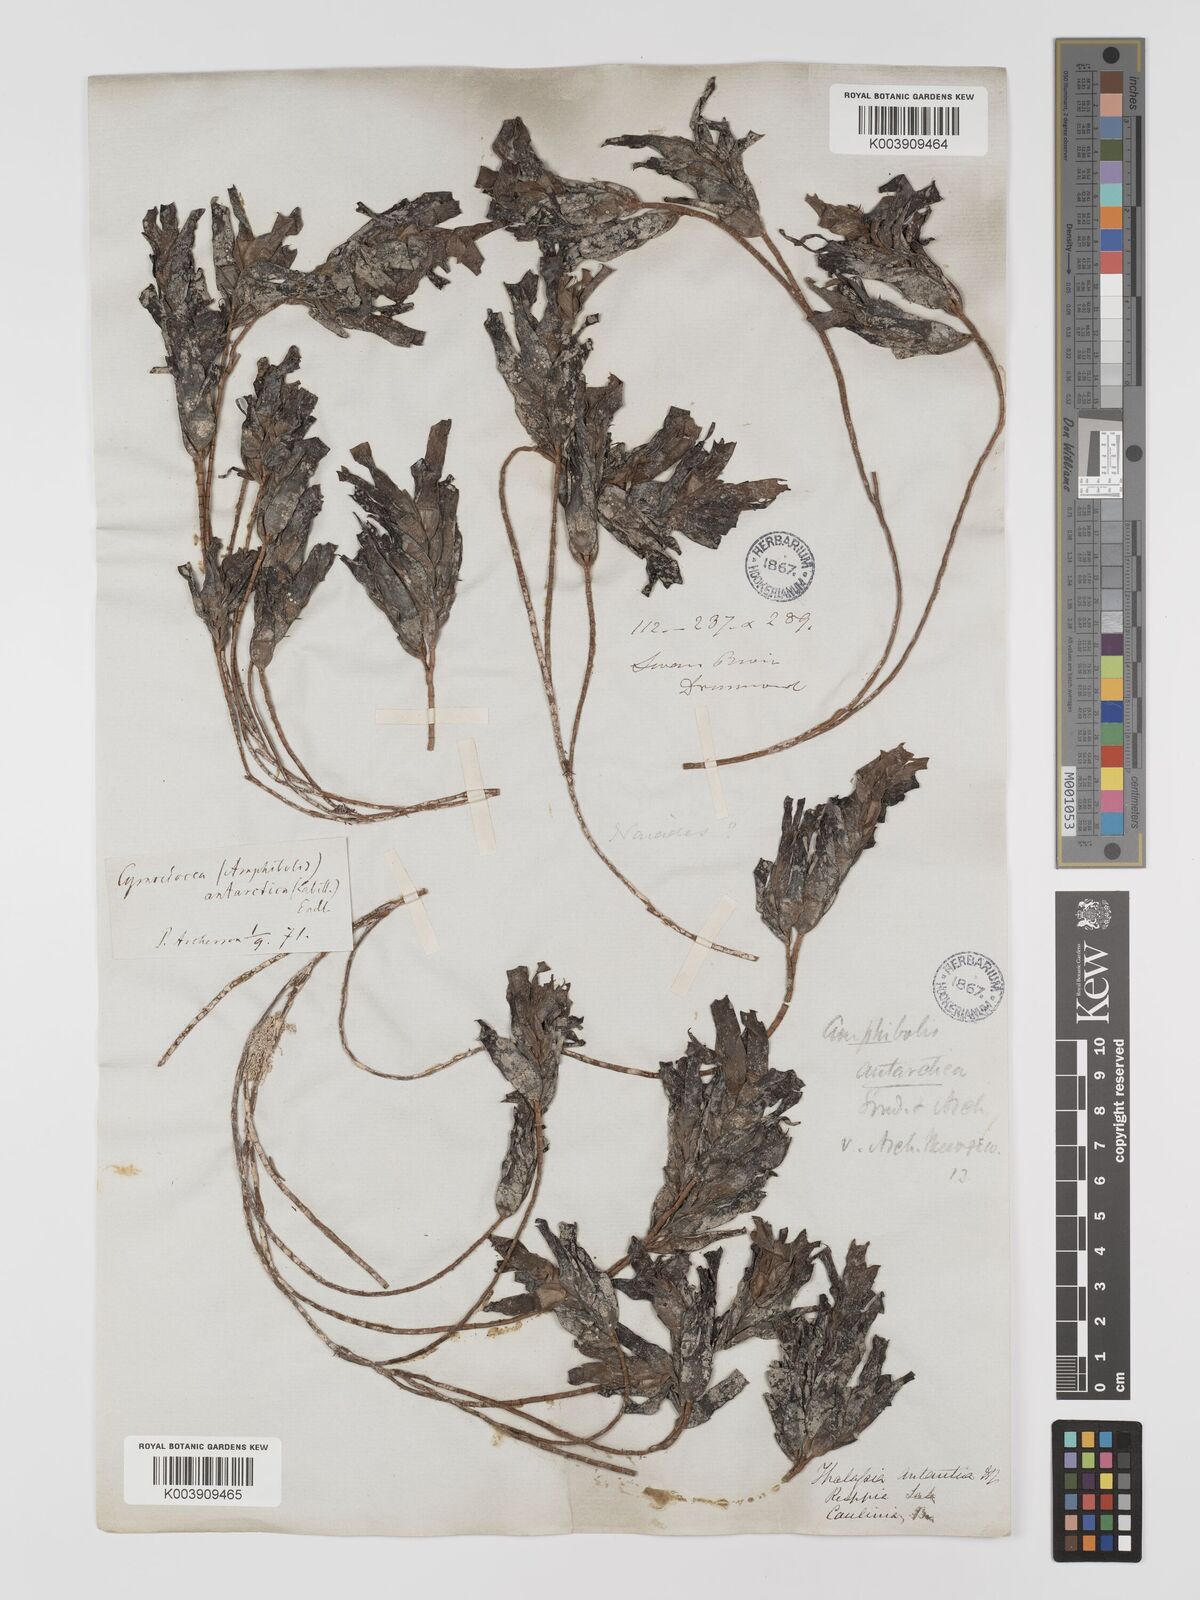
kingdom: Plantae
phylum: Tracheophyta
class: Liliopsida
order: Alismatales
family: Cymodoceaceae
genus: Amphibolis
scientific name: Amphibolis antarctica
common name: Species code: aa
